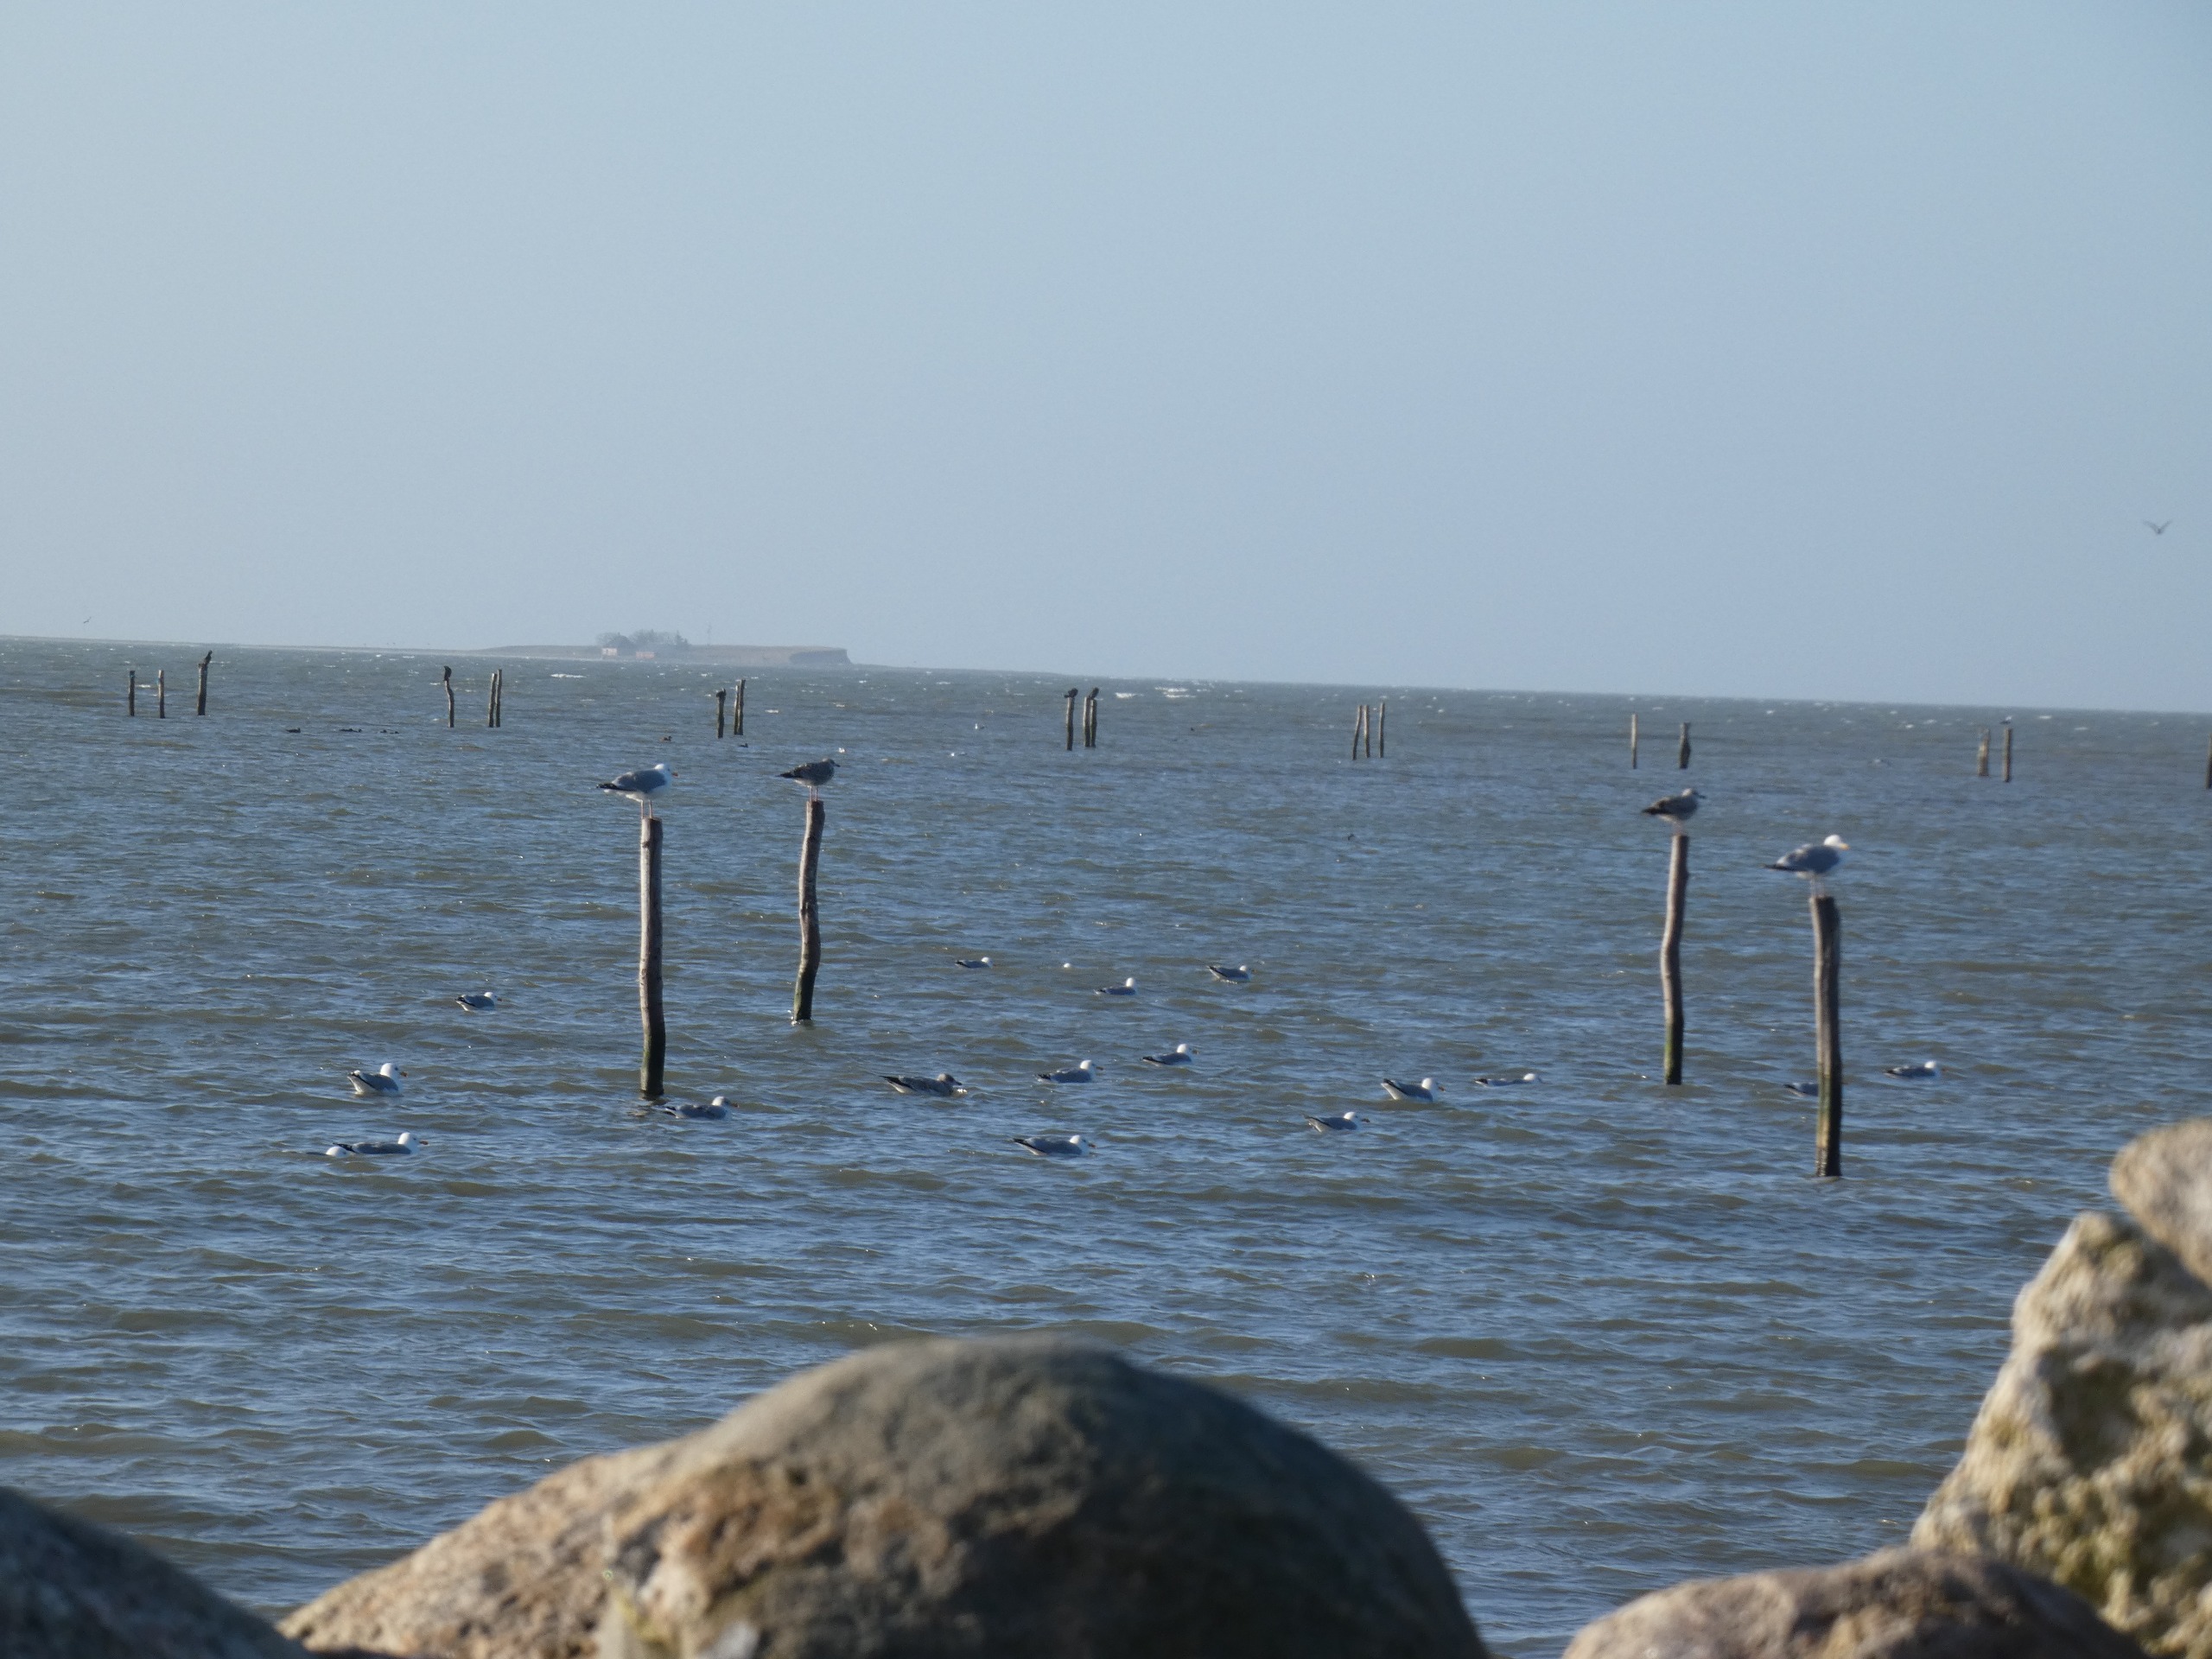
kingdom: Animalia
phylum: Chordata
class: Aves
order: Charadriiformes
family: Laridae
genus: Larus
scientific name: Larus argentatus
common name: Sølvmåge
